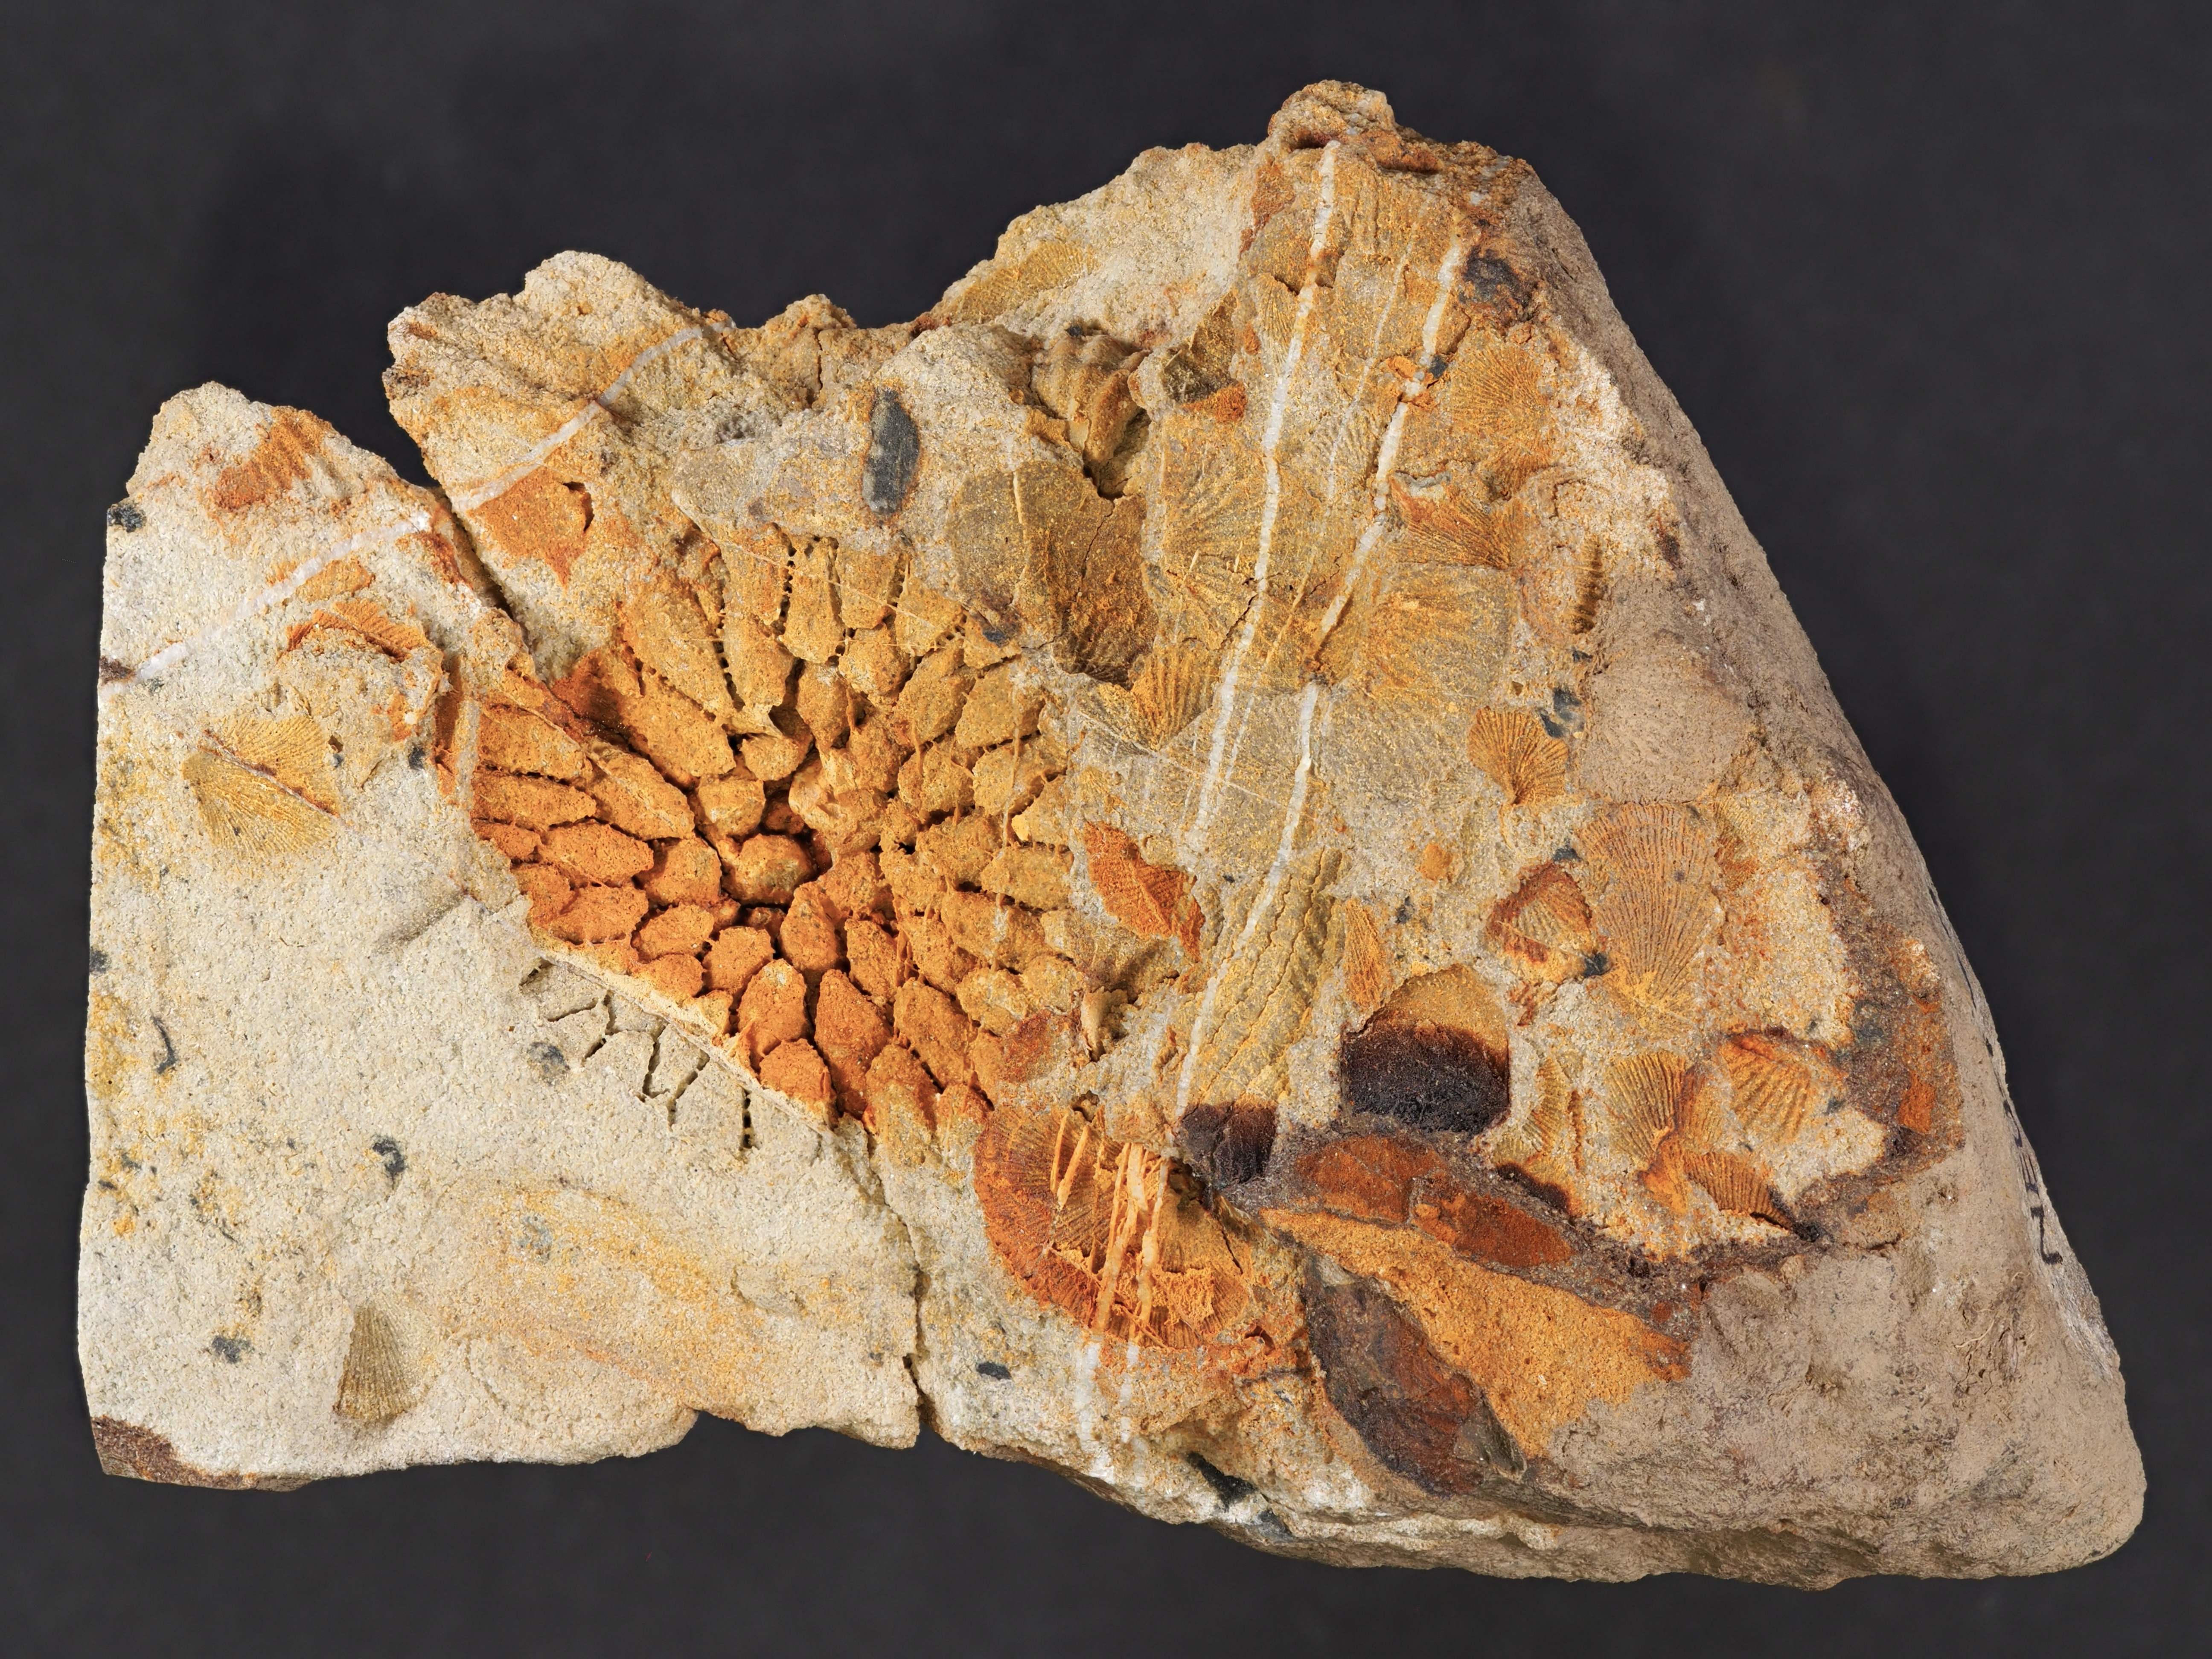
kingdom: Animalia
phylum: Cnidaria
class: Anthozoa
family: Micheliniidae
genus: Pleurodictyum
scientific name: Pleurodictyum
